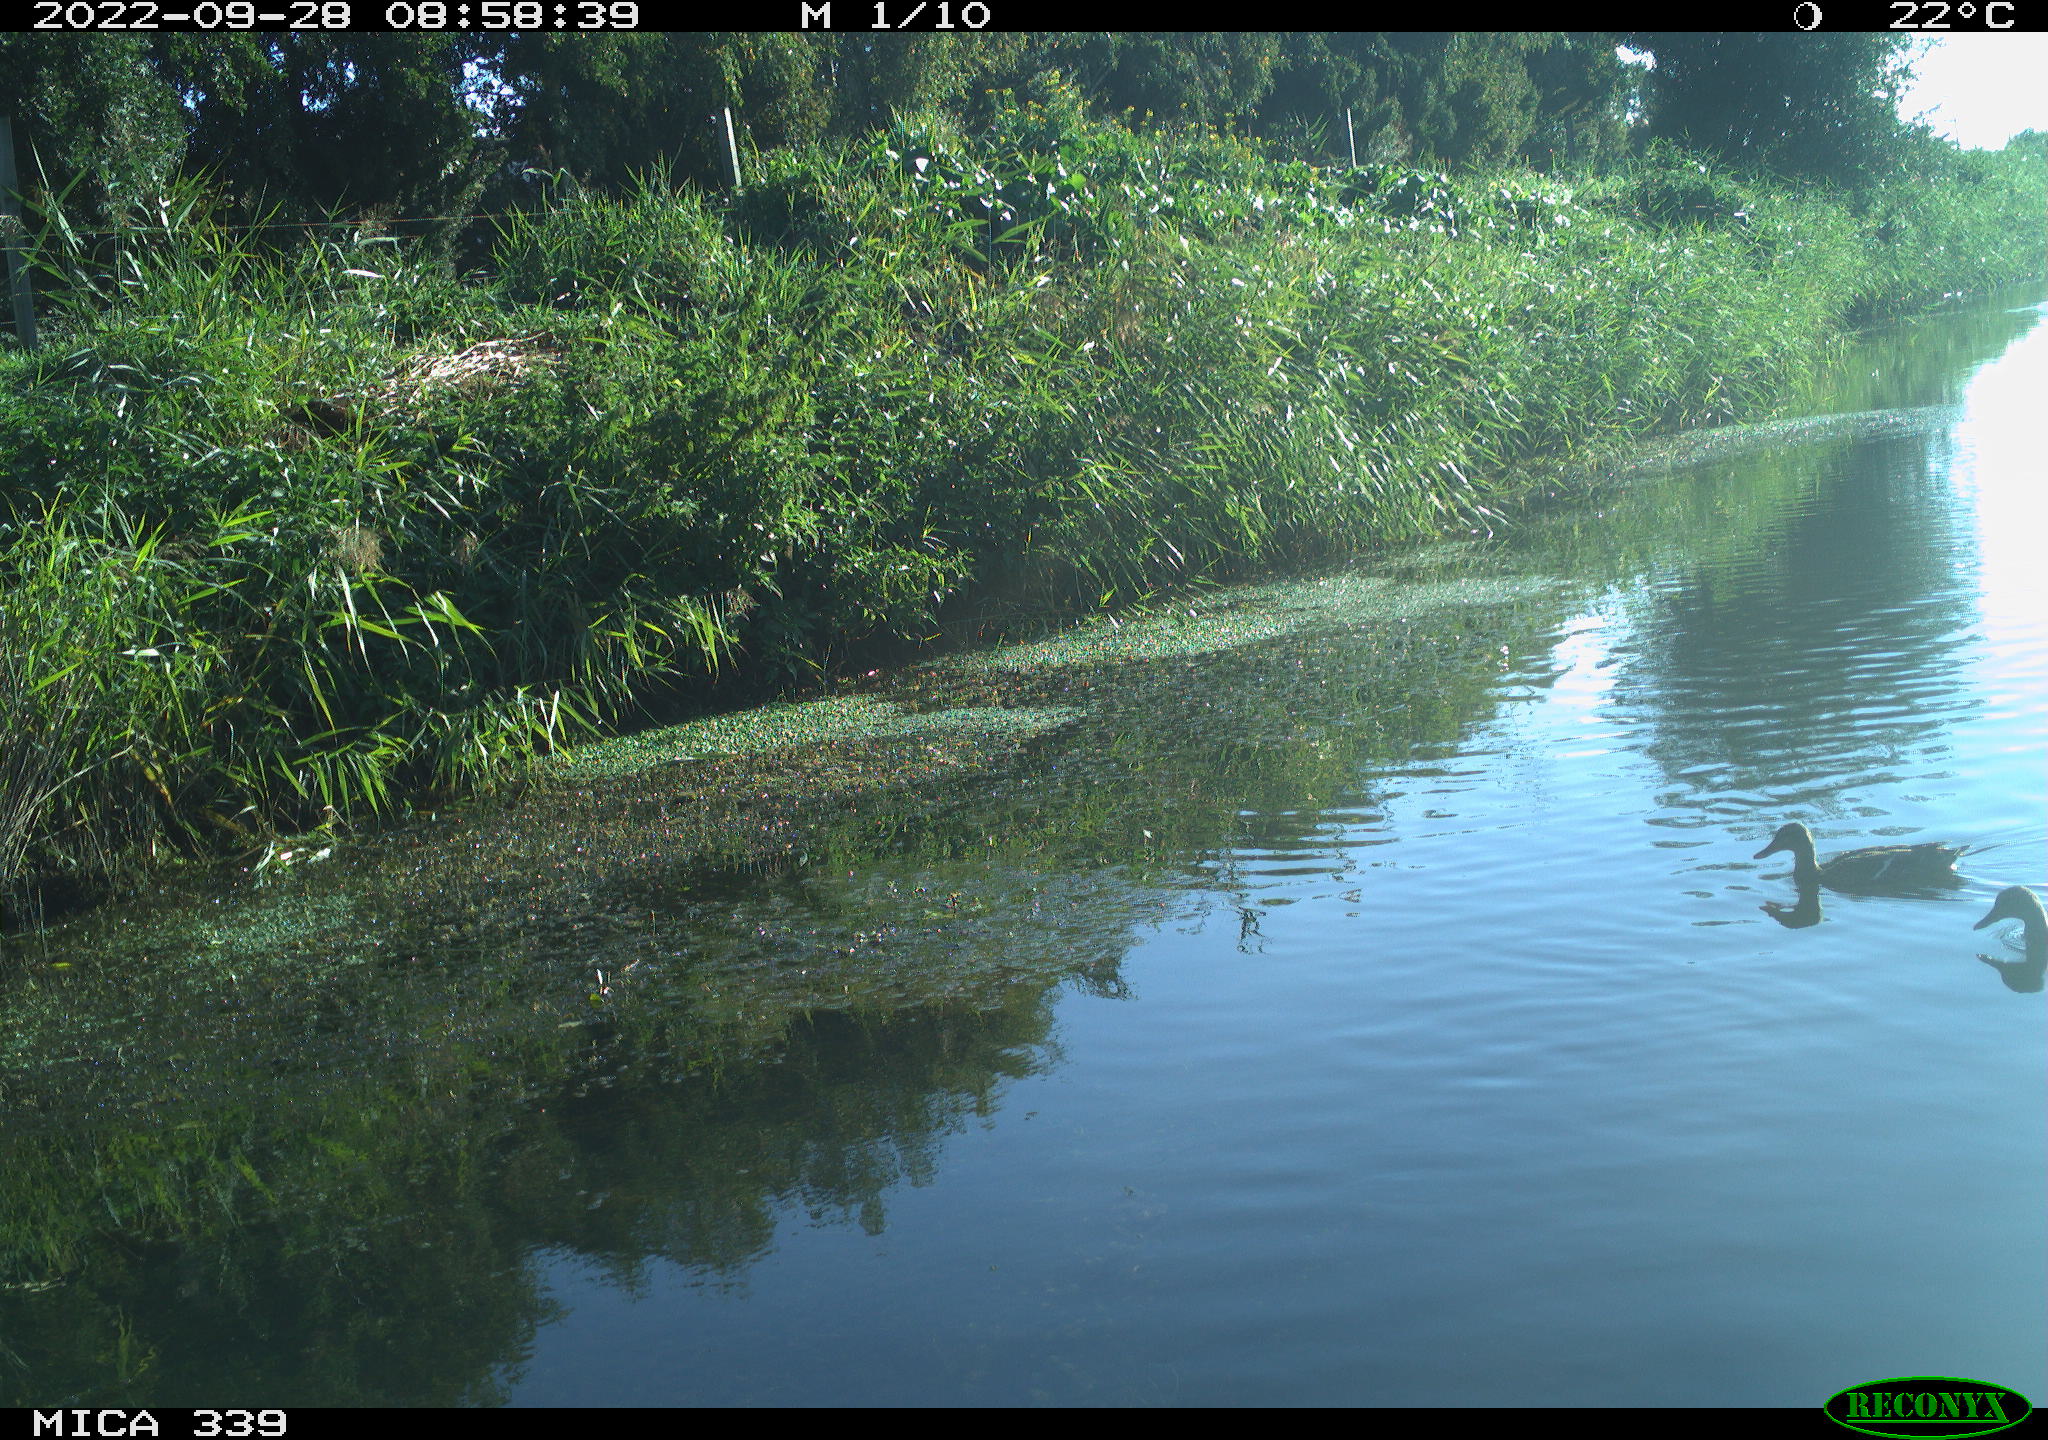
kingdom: Animalia
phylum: Chordata
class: Aves
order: Anseriformes
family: Anatidae
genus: Anas
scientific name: Anas platyrhynchos
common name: Mallard
